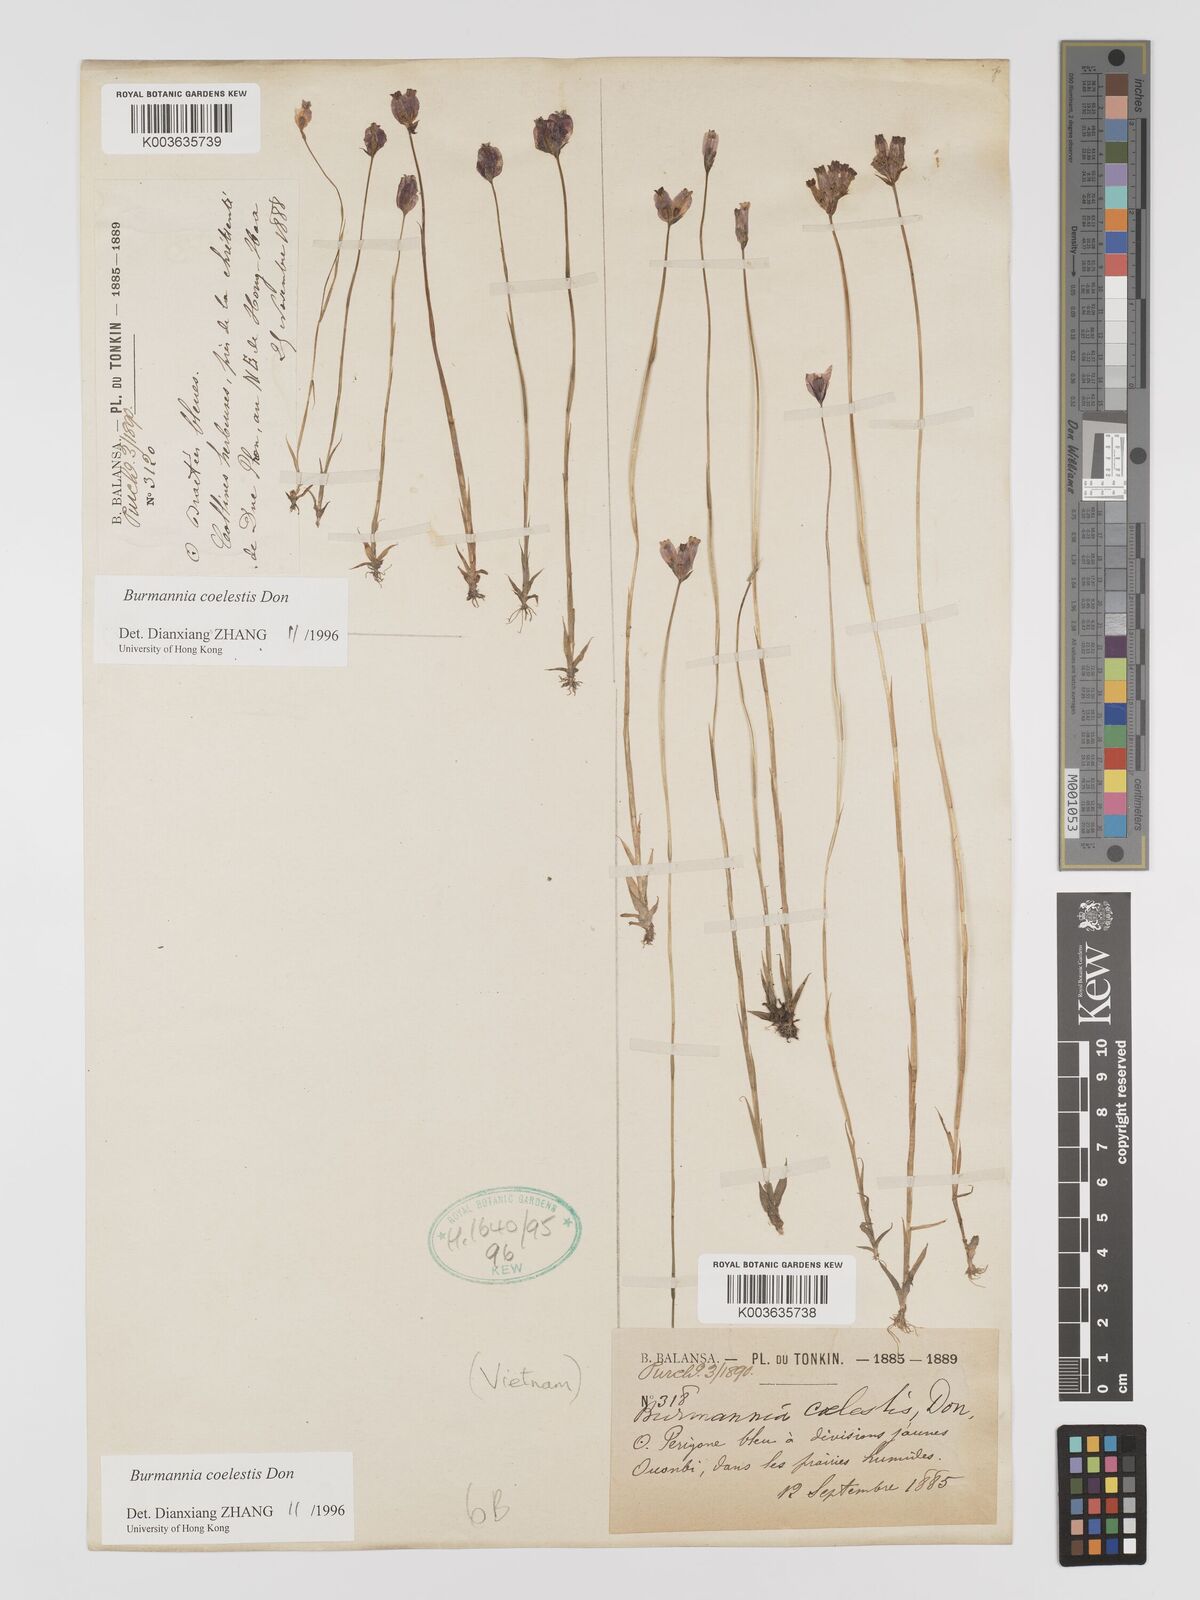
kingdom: Plantae
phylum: Tracheophyta
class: Liliopsida
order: Dioscoreales
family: Burmanniaceae
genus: Burmannia
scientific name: Burmannia coelestis
